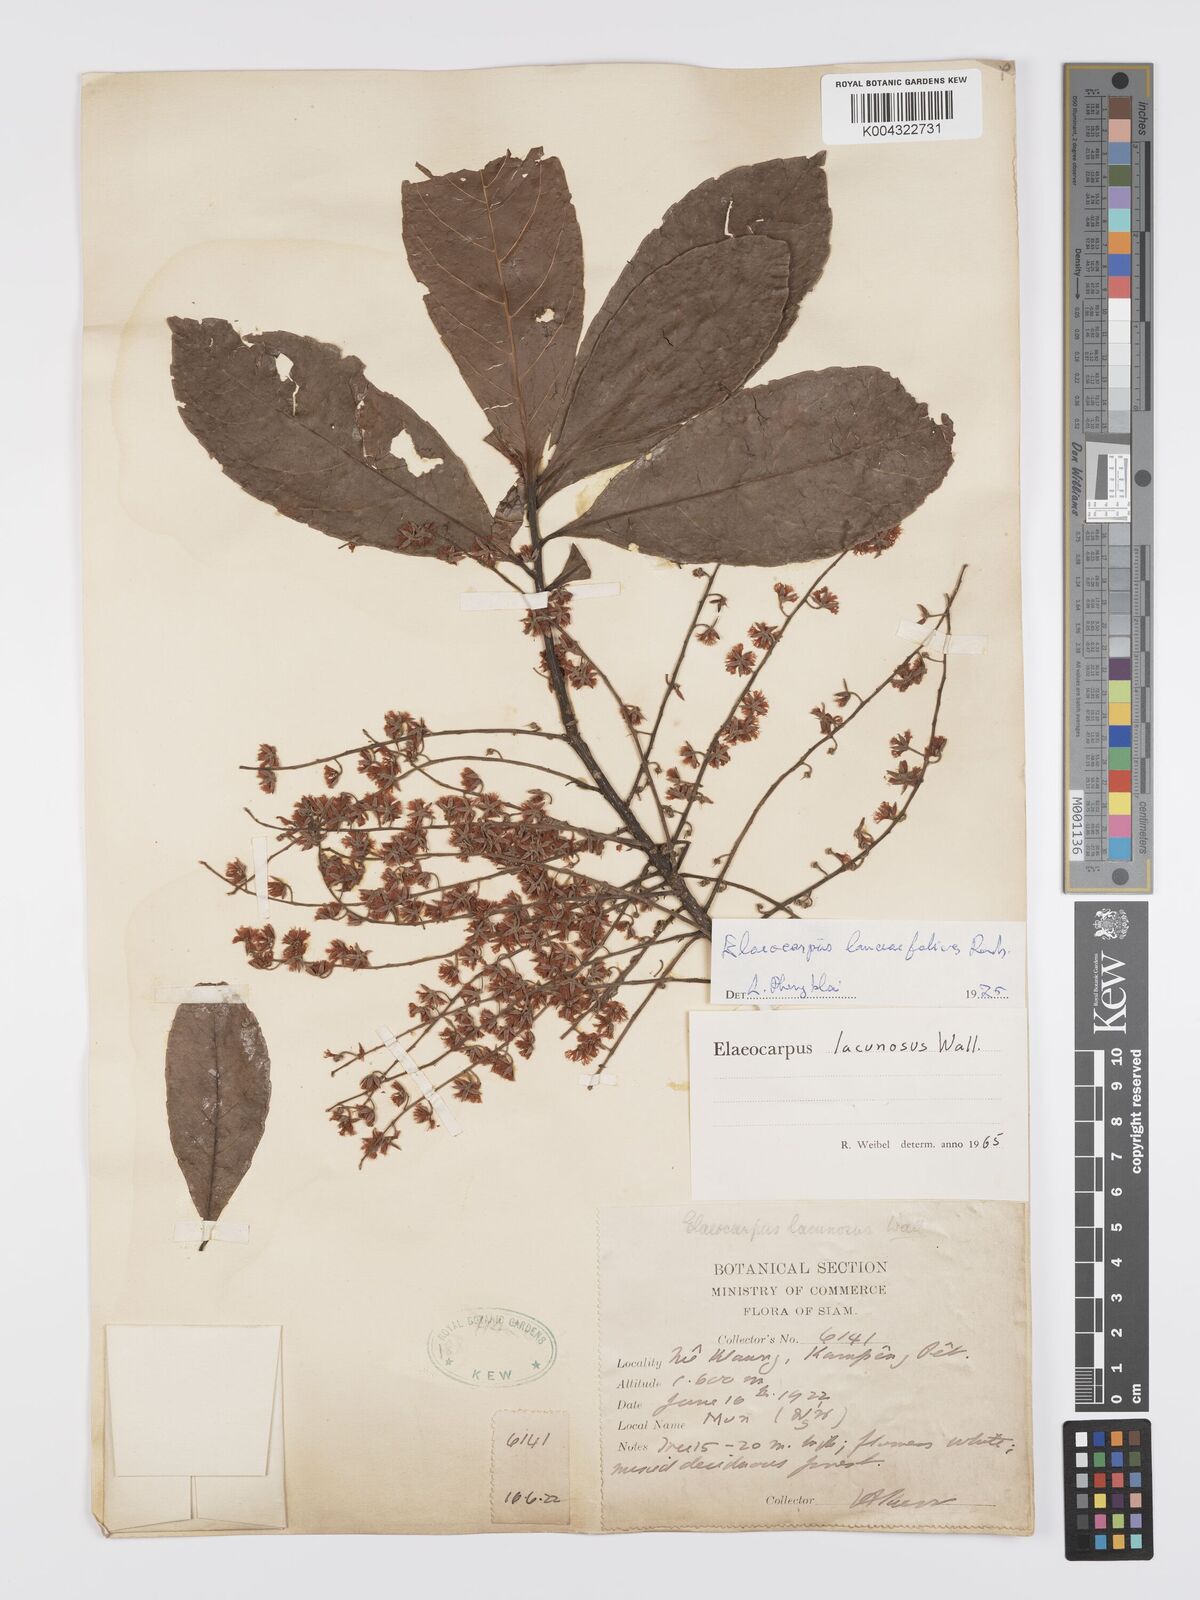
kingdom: Plantae
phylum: Tracheophyta
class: Magnoliopsida
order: Oxalidales
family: Elaeocarpaceae
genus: Elaeocarpus
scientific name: Elaeocarpus lanceifolius
